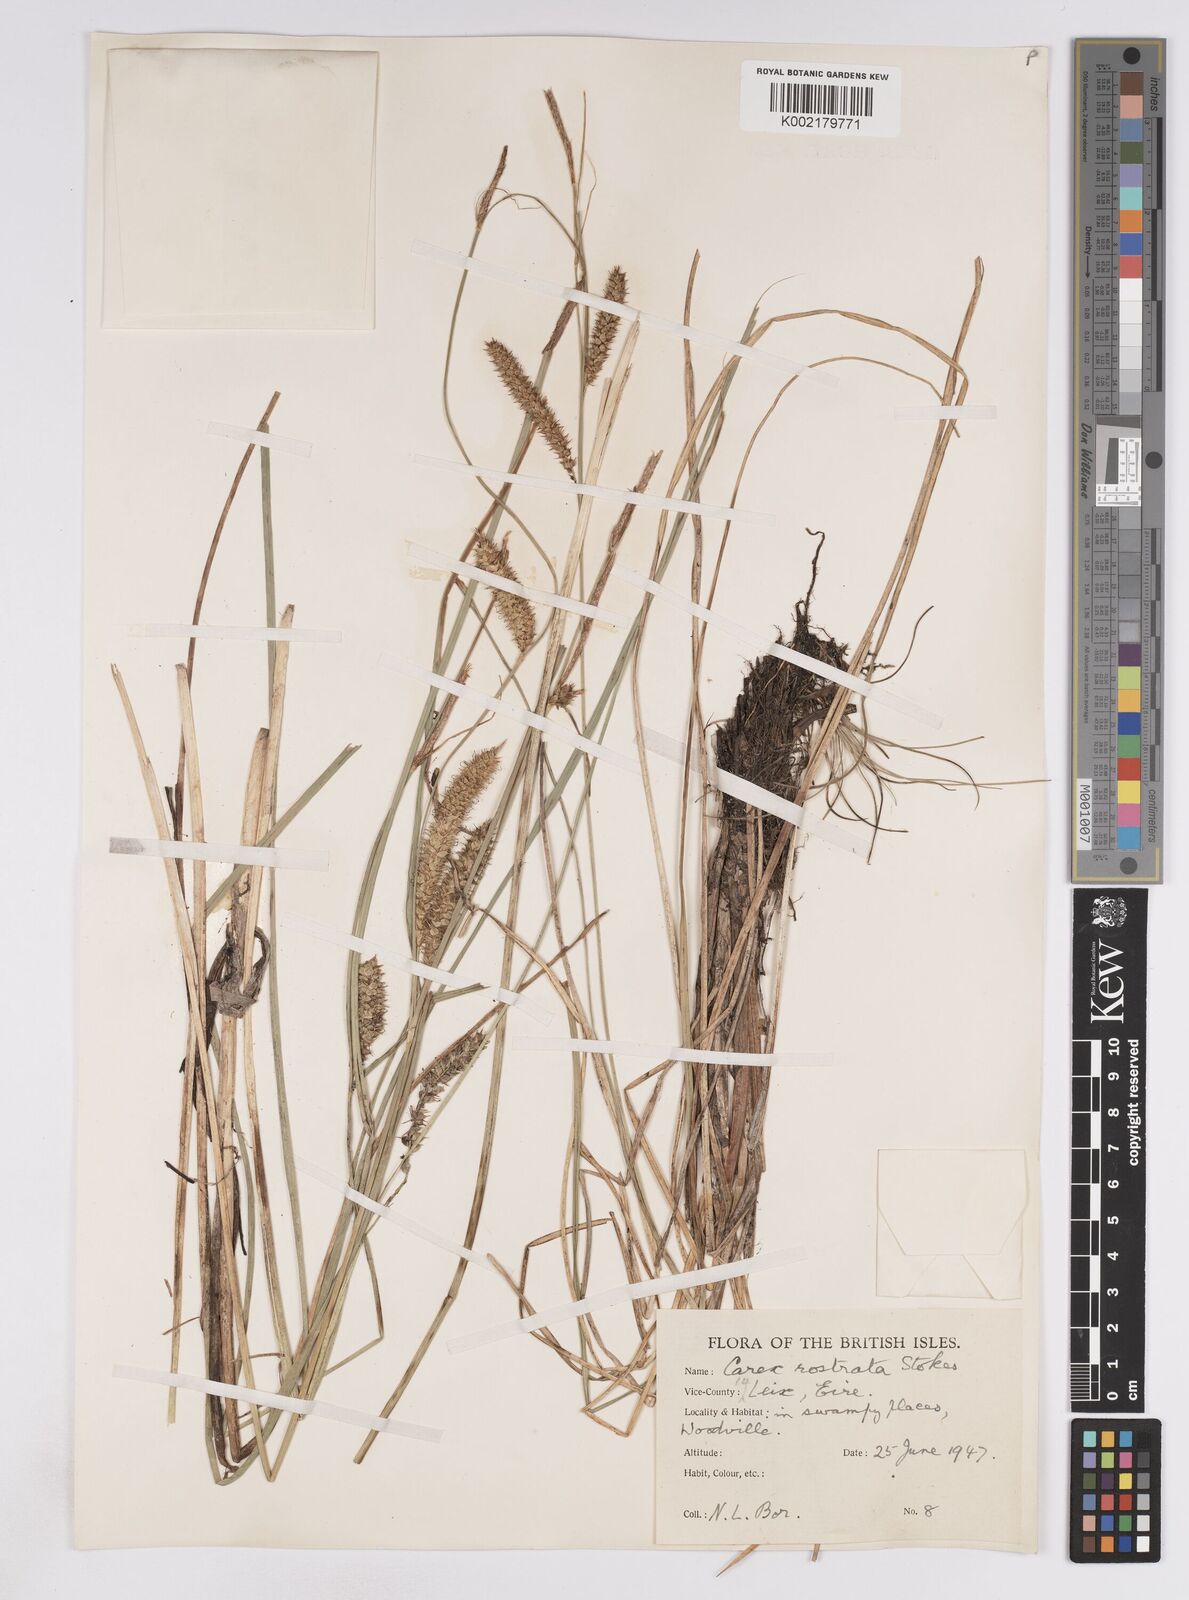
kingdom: Plantae
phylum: Tracheophyta
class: Liliopsida
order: Poales
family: Cyperaceae
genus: Carex
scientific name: Carex rostrata
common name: Bottle sedge
